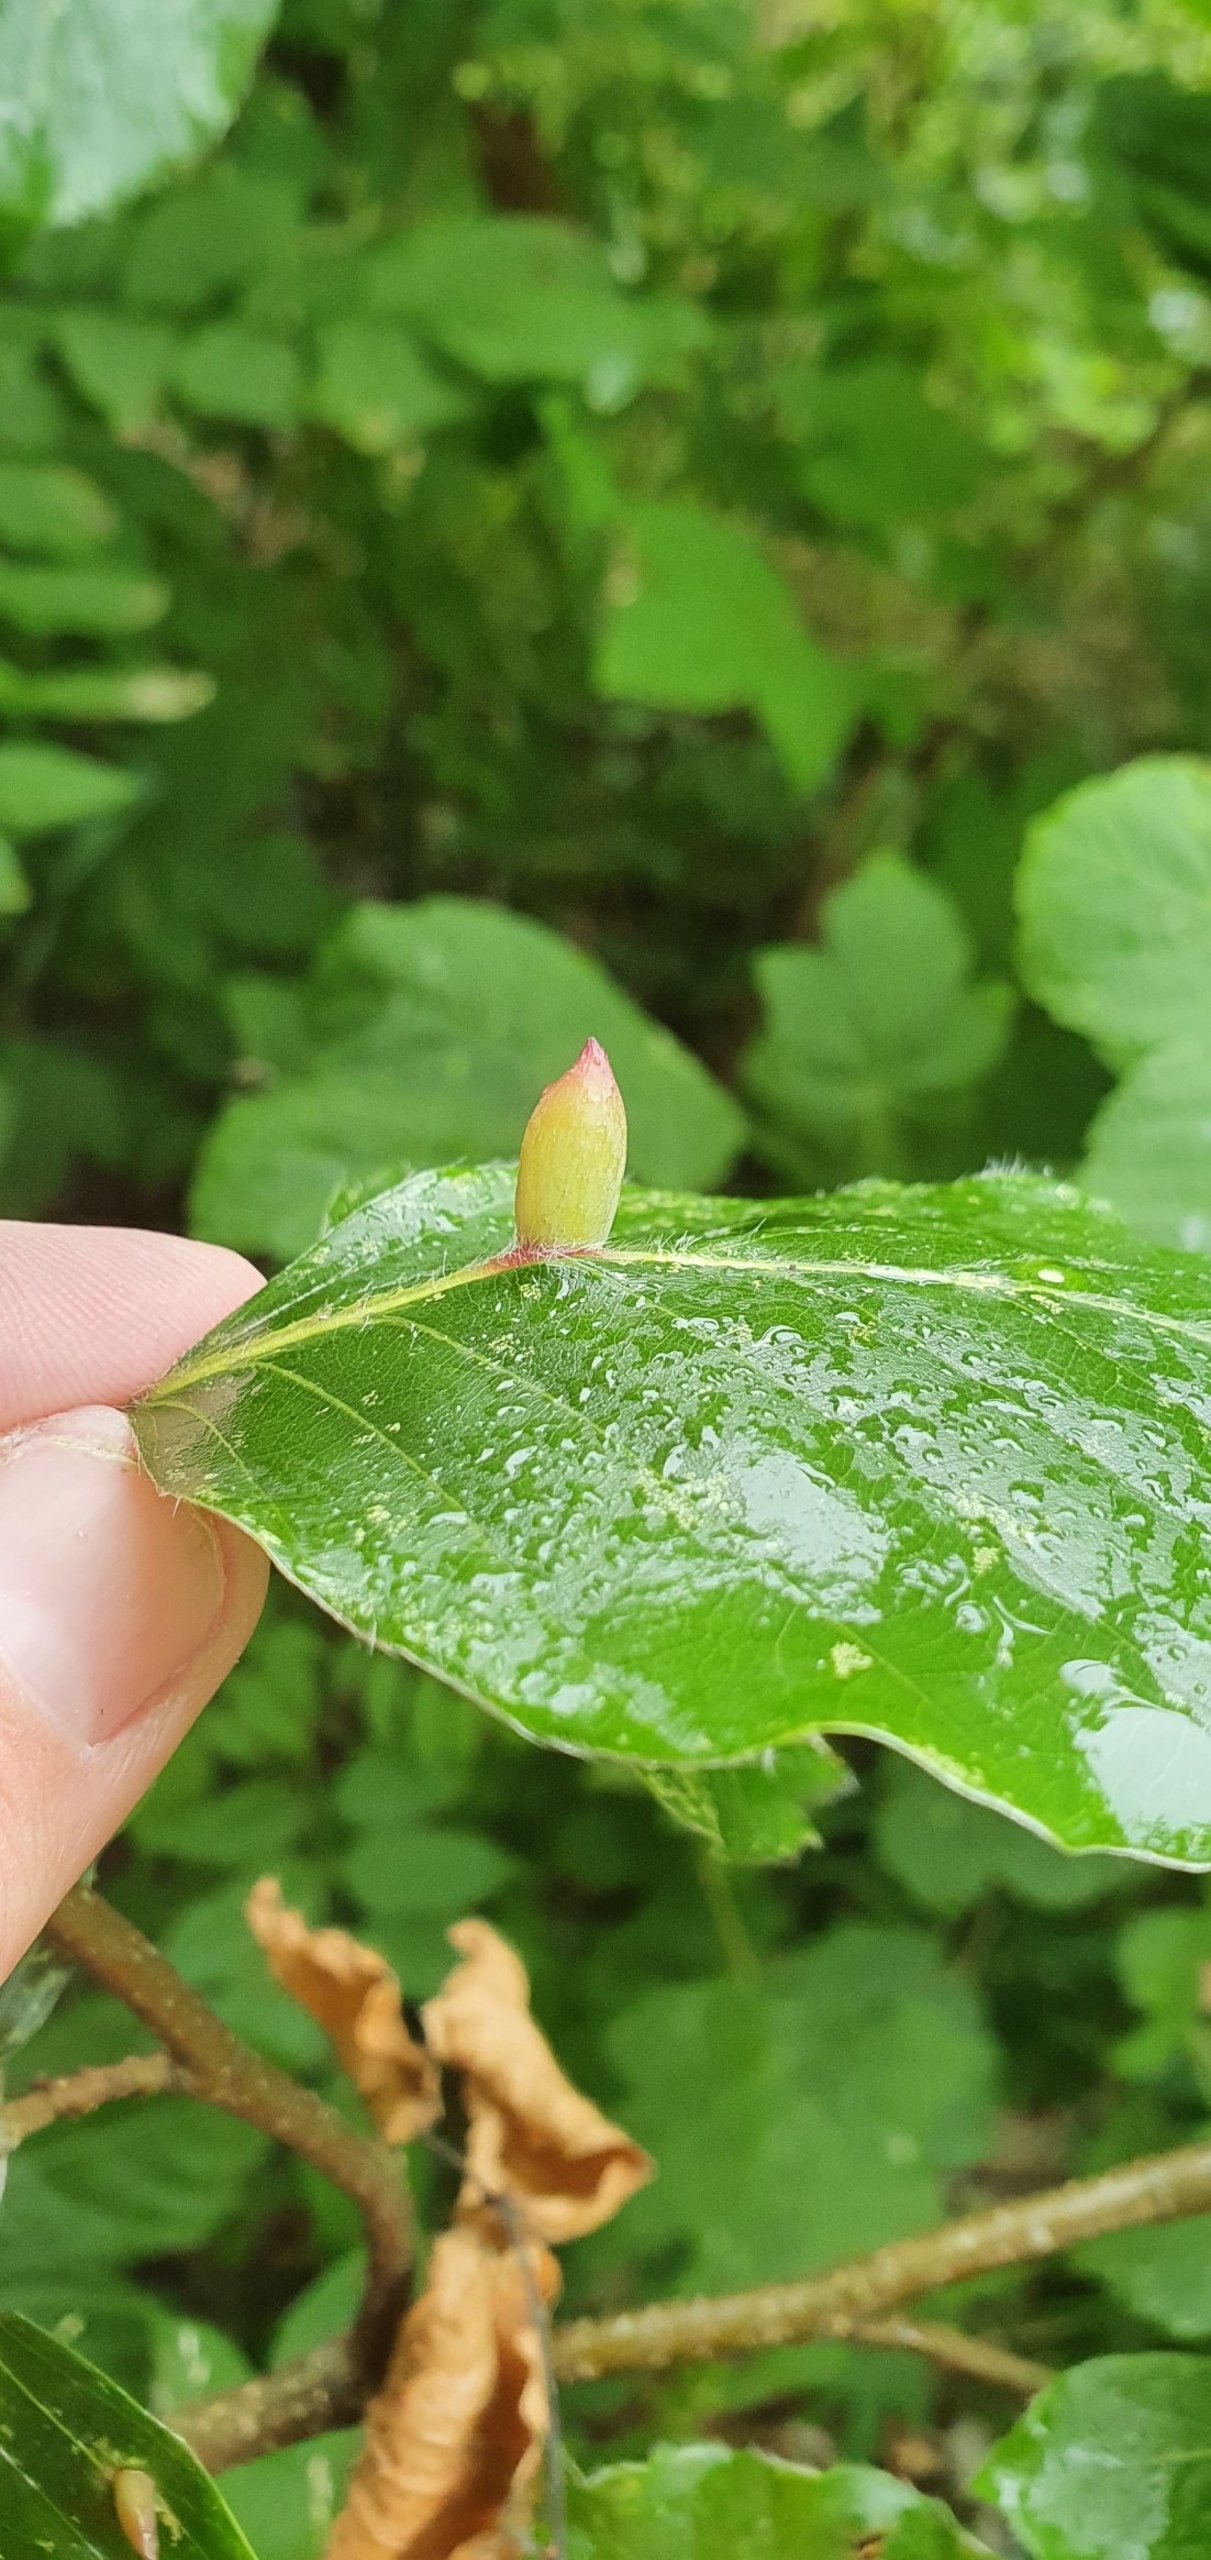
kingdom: Animalia
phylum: Arthropoda
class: Insecta
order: Diptera
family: Cecidomyiidae
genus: Mikiola
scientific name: Mikiola fagi
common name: Bøgegalmyg
